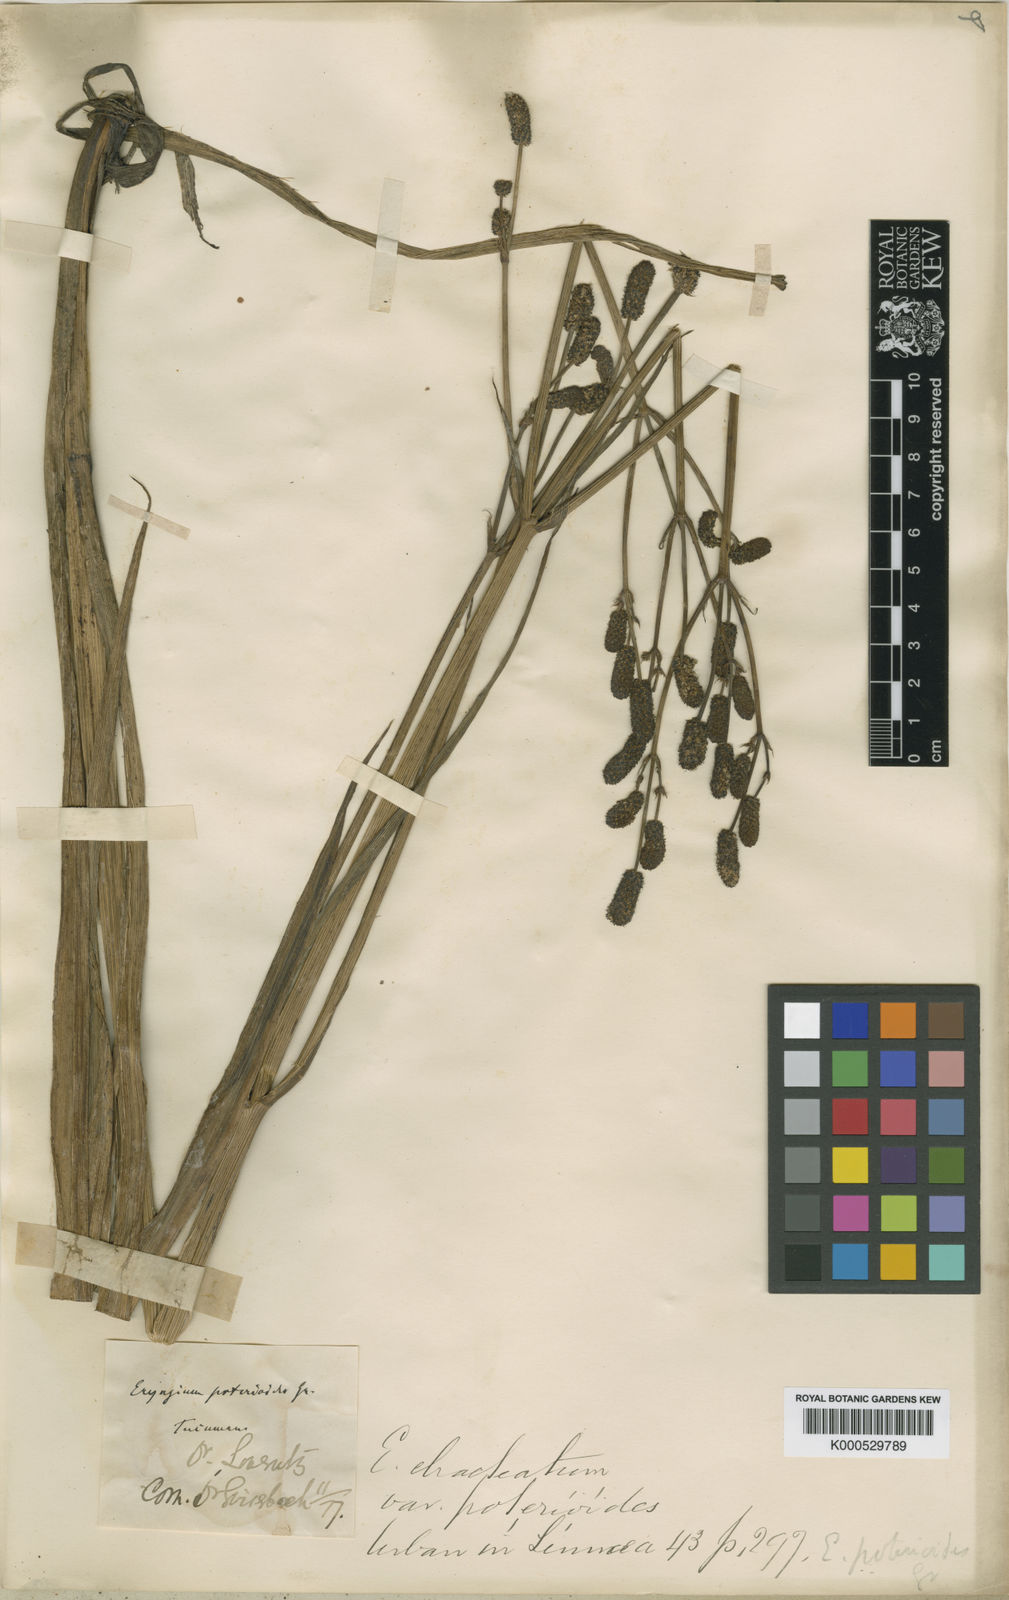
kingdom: Plantae
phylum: Tracheophyta
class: Magnoliopsida
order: Apiales
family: Apiaceae
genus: Eryngium
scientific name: Eryngium ebracteatum
